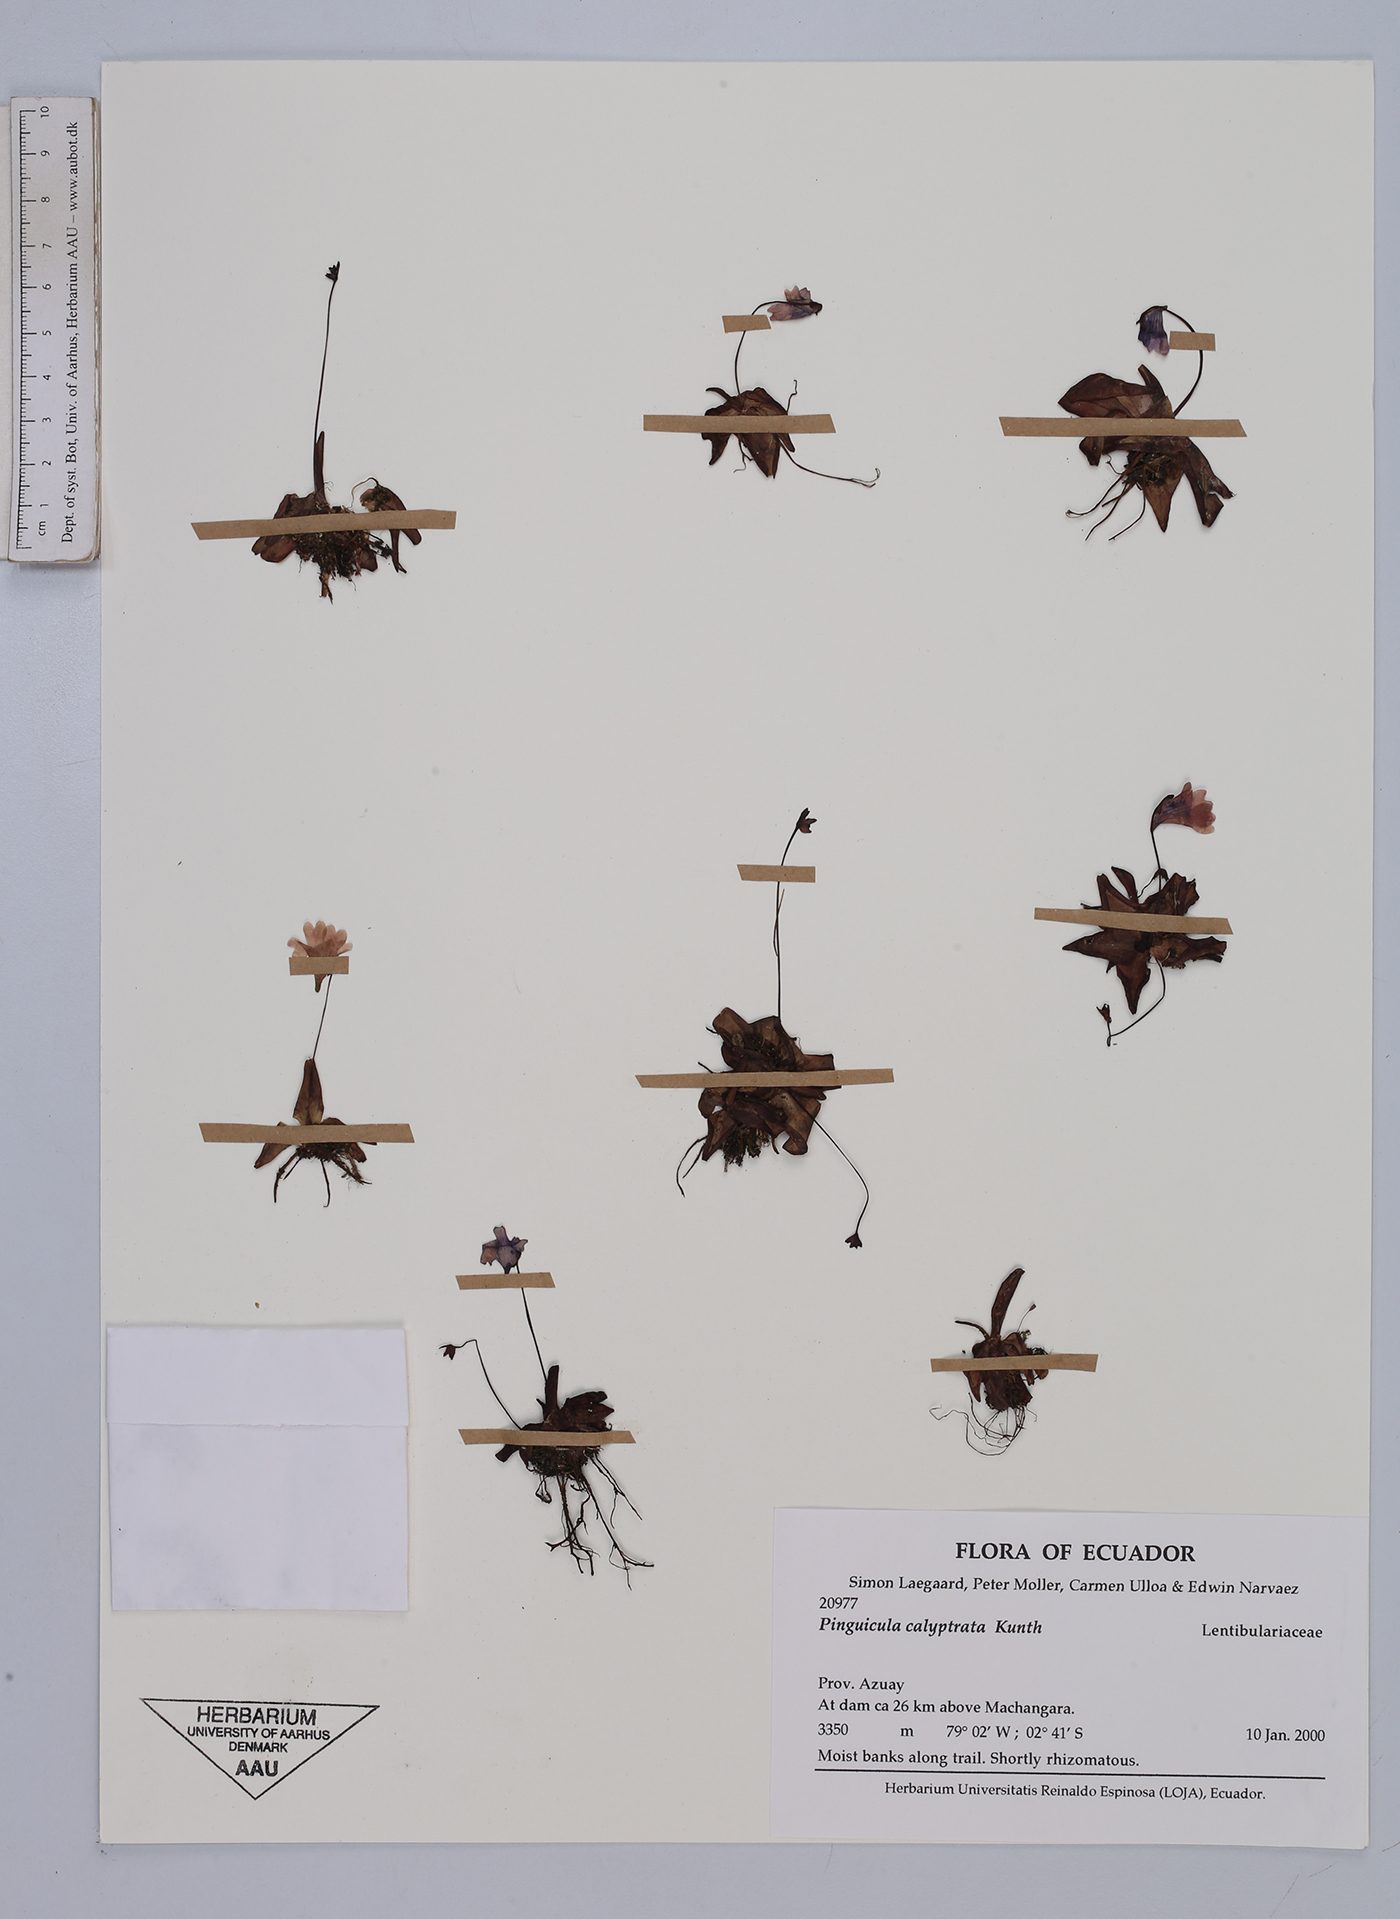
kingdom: Plantae
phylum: Tracheophyta
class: Magnoliopsida
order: Lamiales
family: Lentibulariaceae
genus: Pinguicula
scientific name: Pinguicula calyptrata
